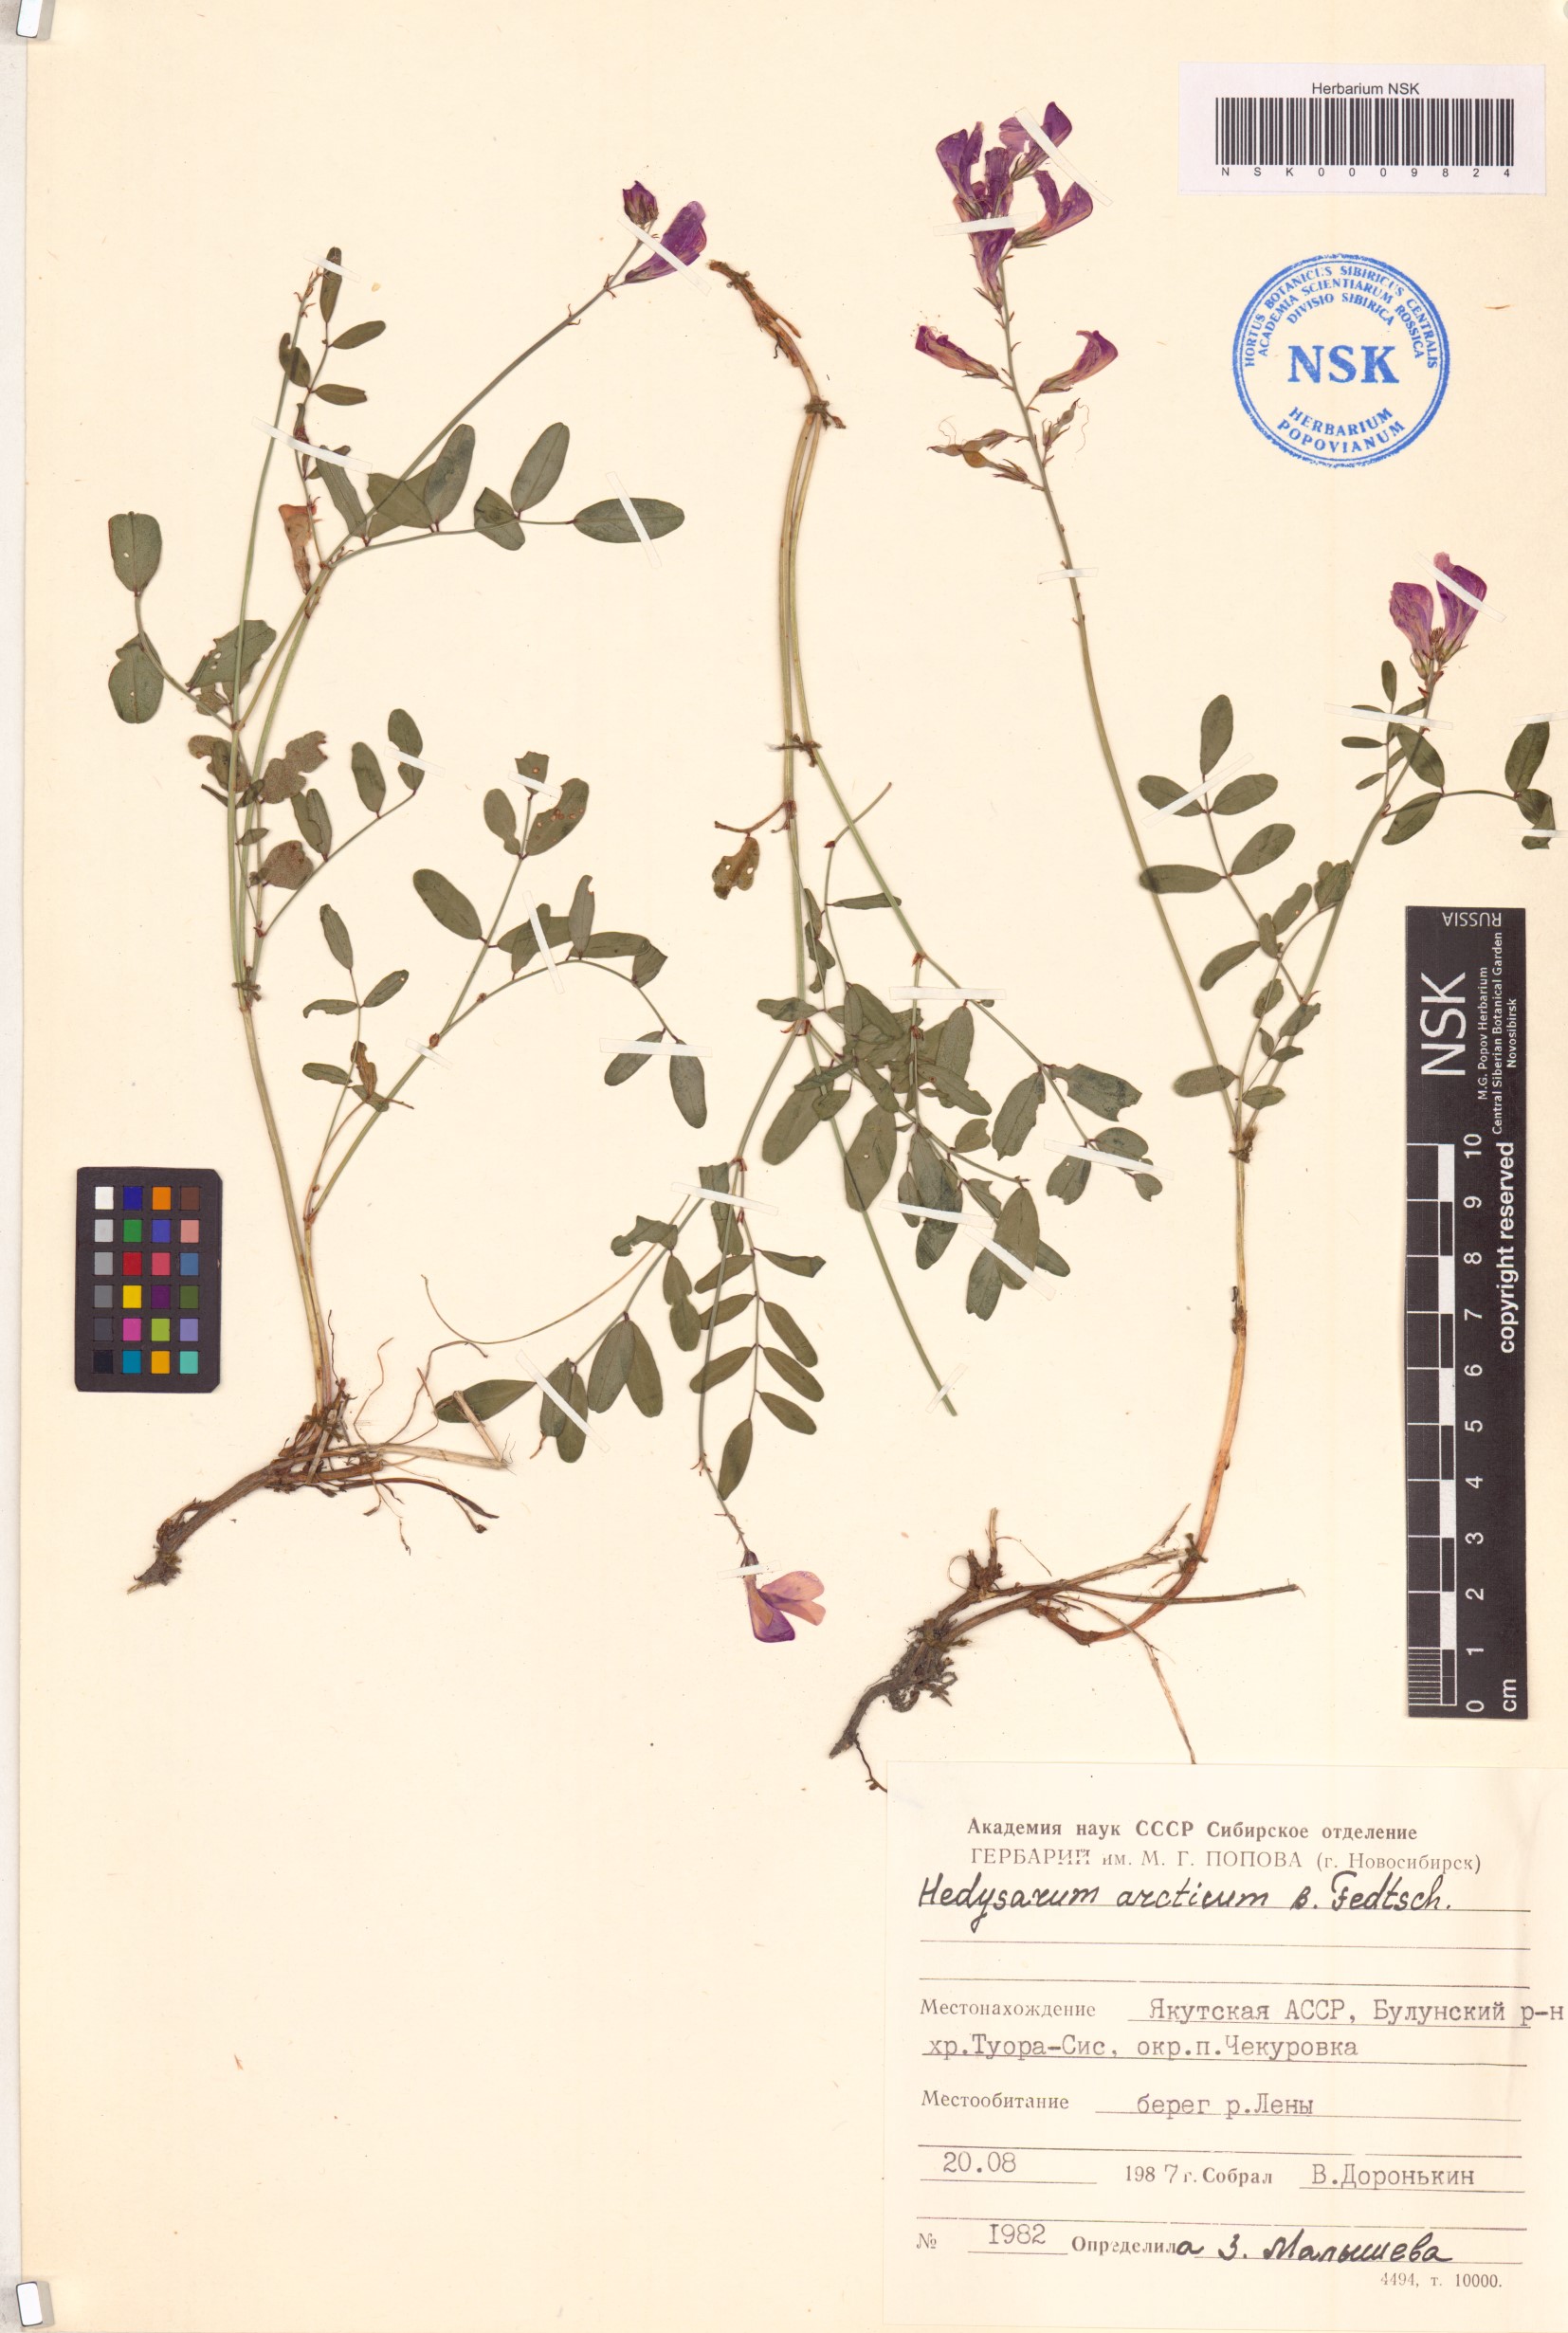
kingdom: Plantae
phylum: Tracheophyta
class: Magnoliopsida
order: Fabales
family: Fabaceae
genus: Hedysarum
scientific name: Hedysarum hedysaroides
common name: Alpine french-honeysuckle
